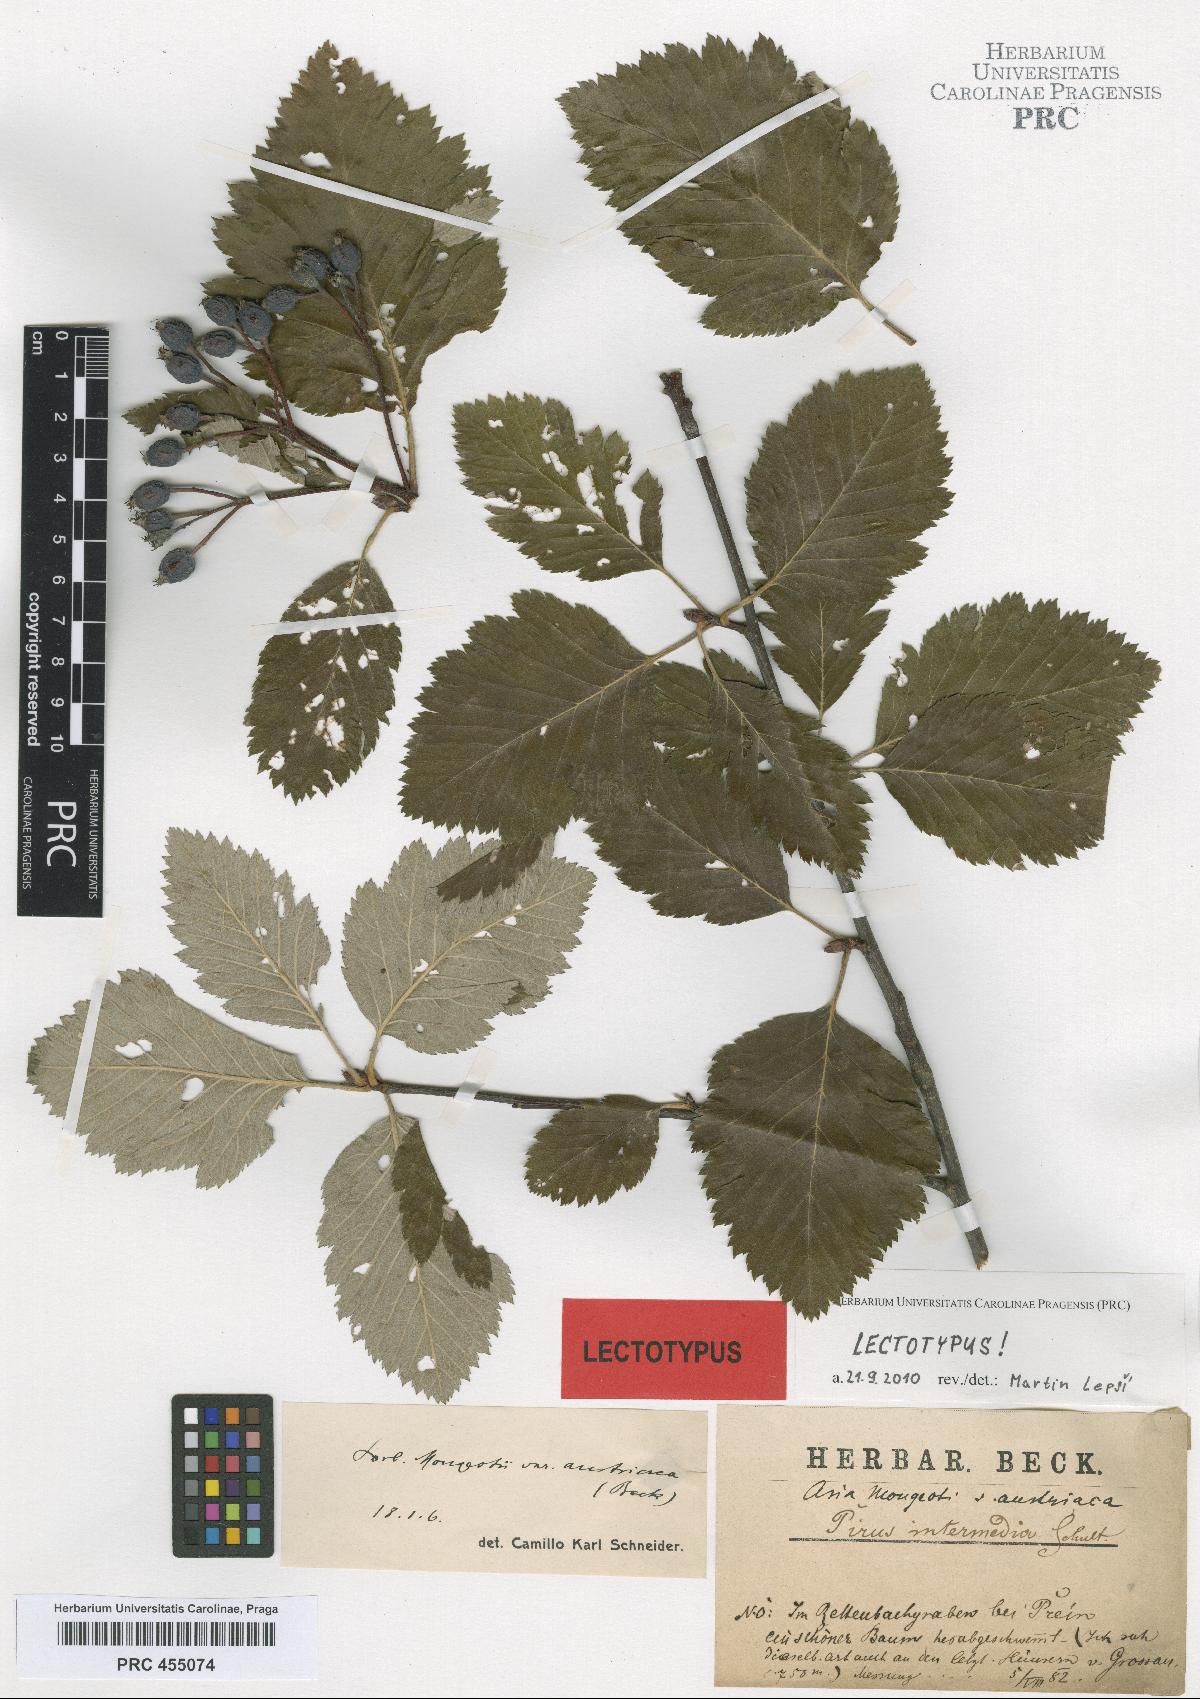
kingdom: Plantae
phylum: Tracheophyta
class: Magnoliopsida
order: Rosales
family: Rosaceae
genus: Hedlundia
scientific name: Hedlundia austriaca
